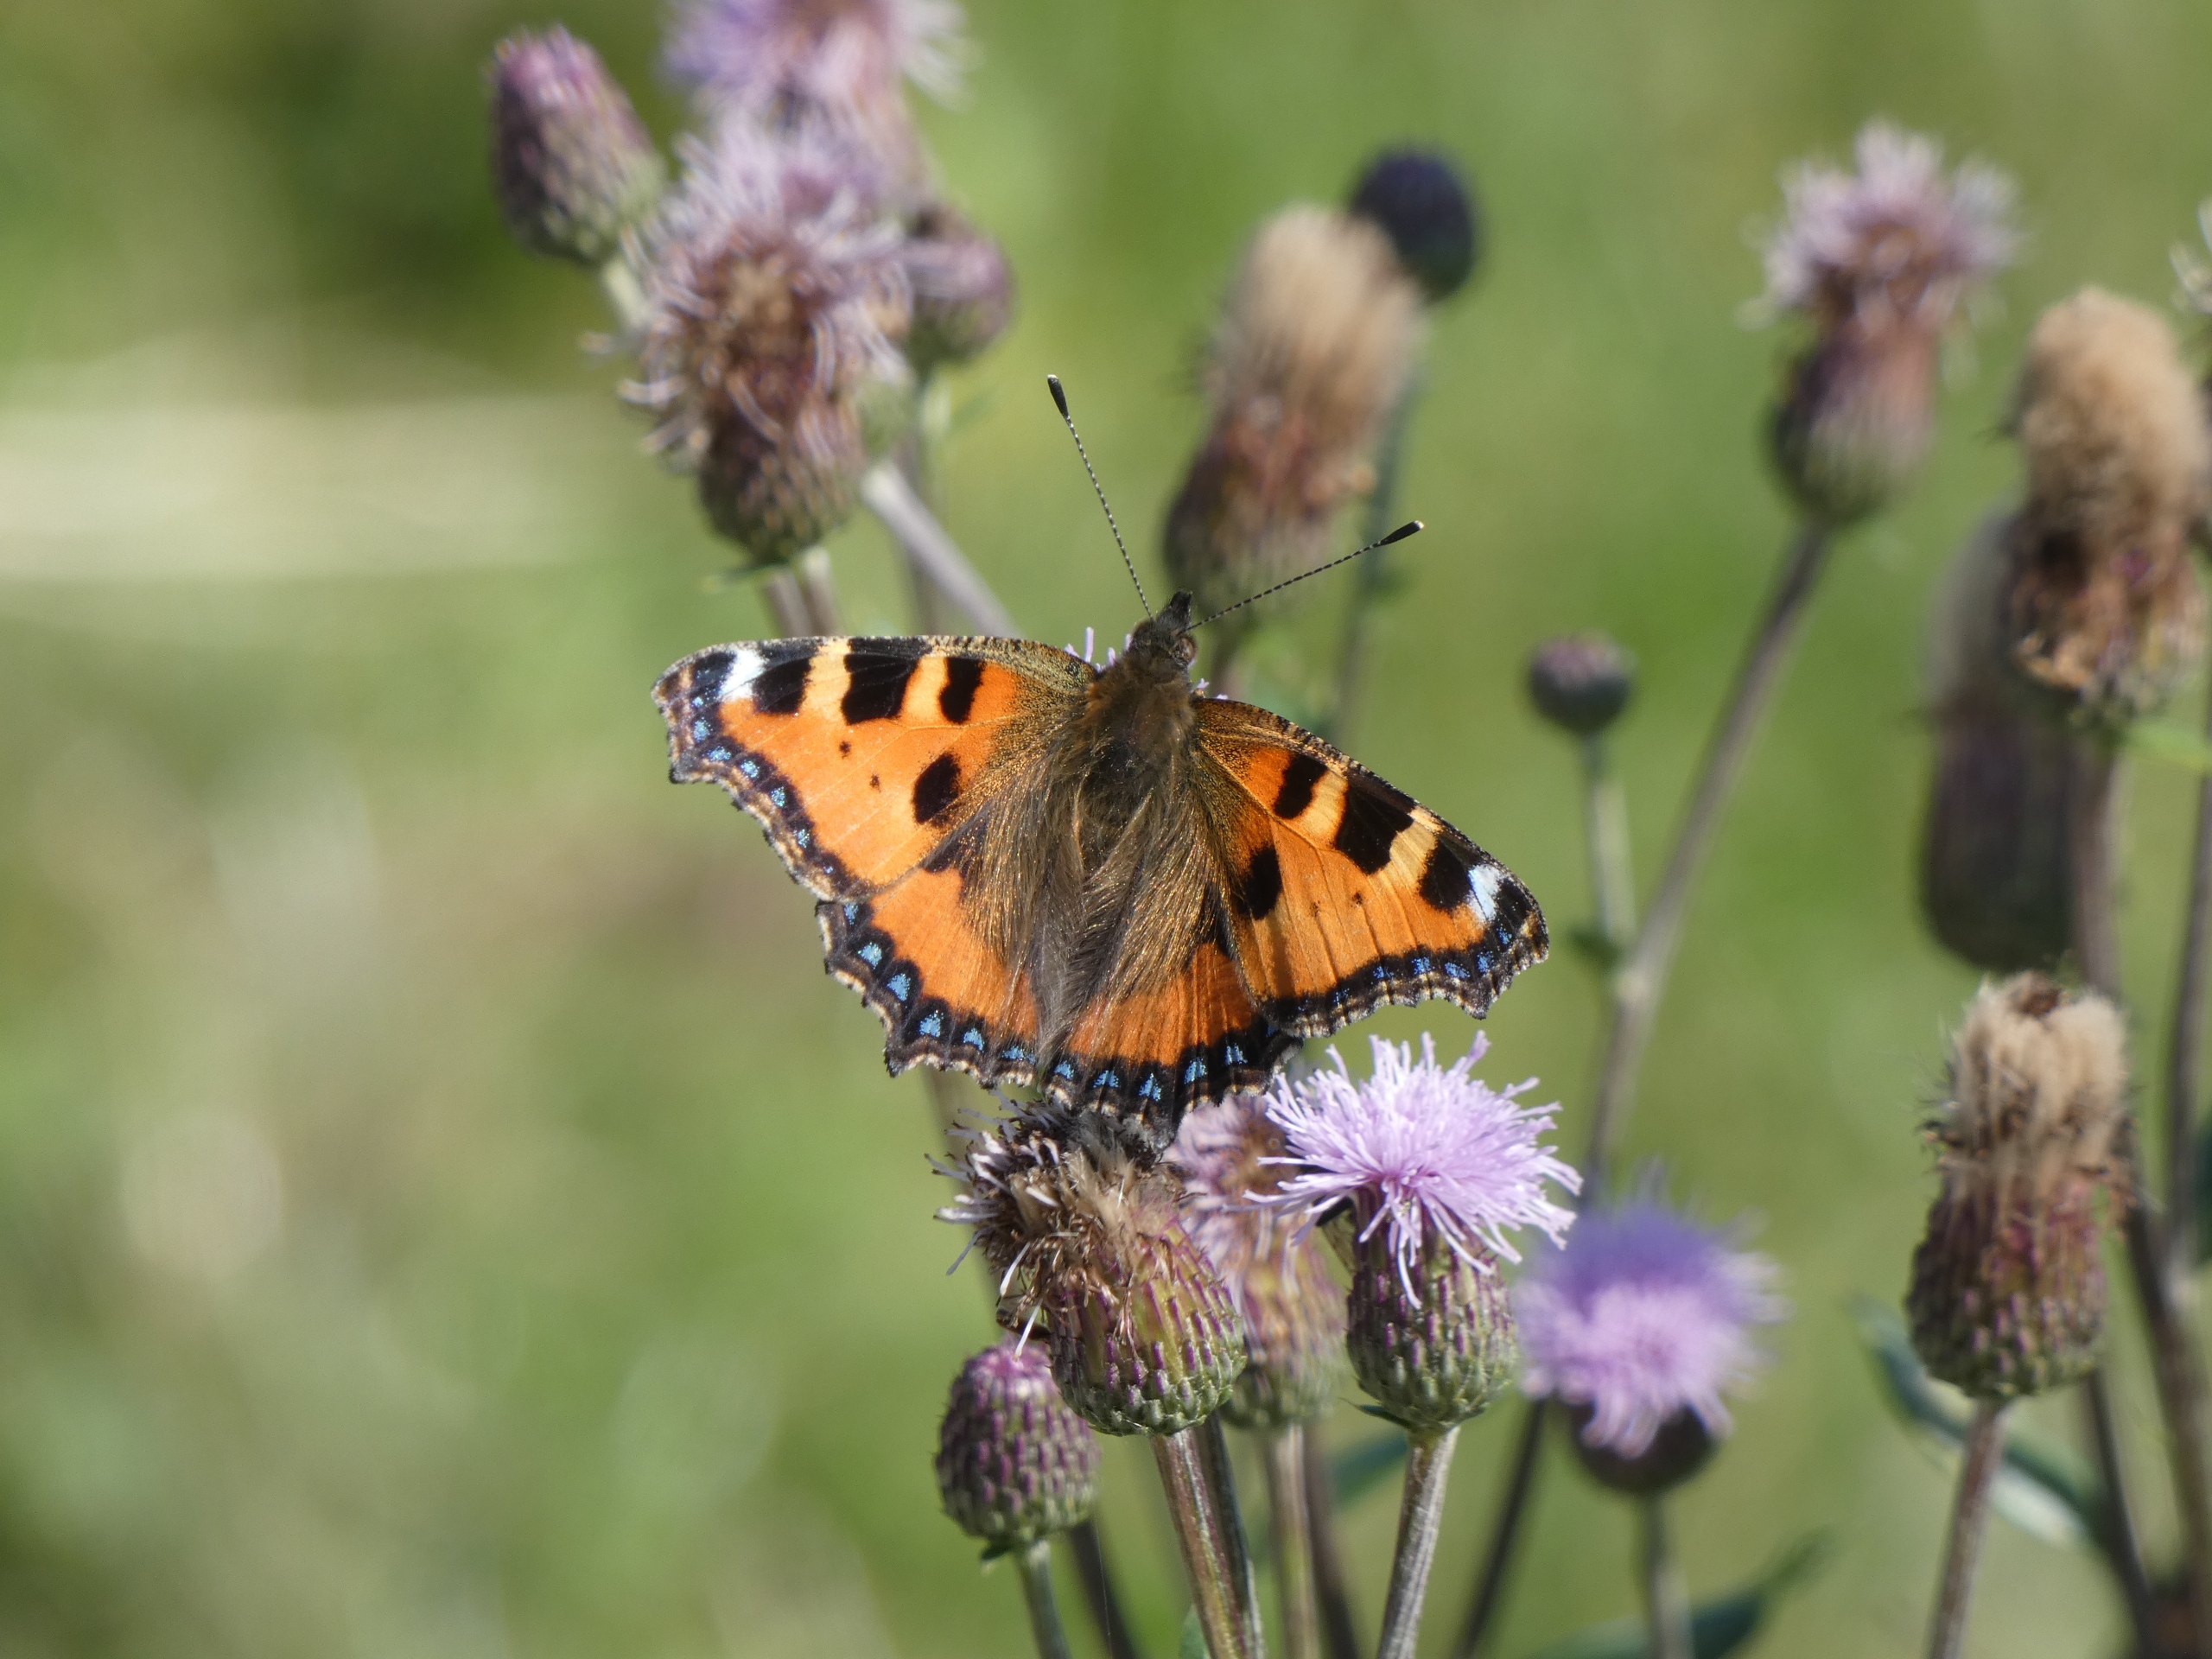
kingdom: Animalia
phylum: Arthropoda
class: Insecta
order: Lepidoptera
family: Nymphalidae
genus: Aglais
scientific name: Aglais urticae
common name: Nældens takvinge
